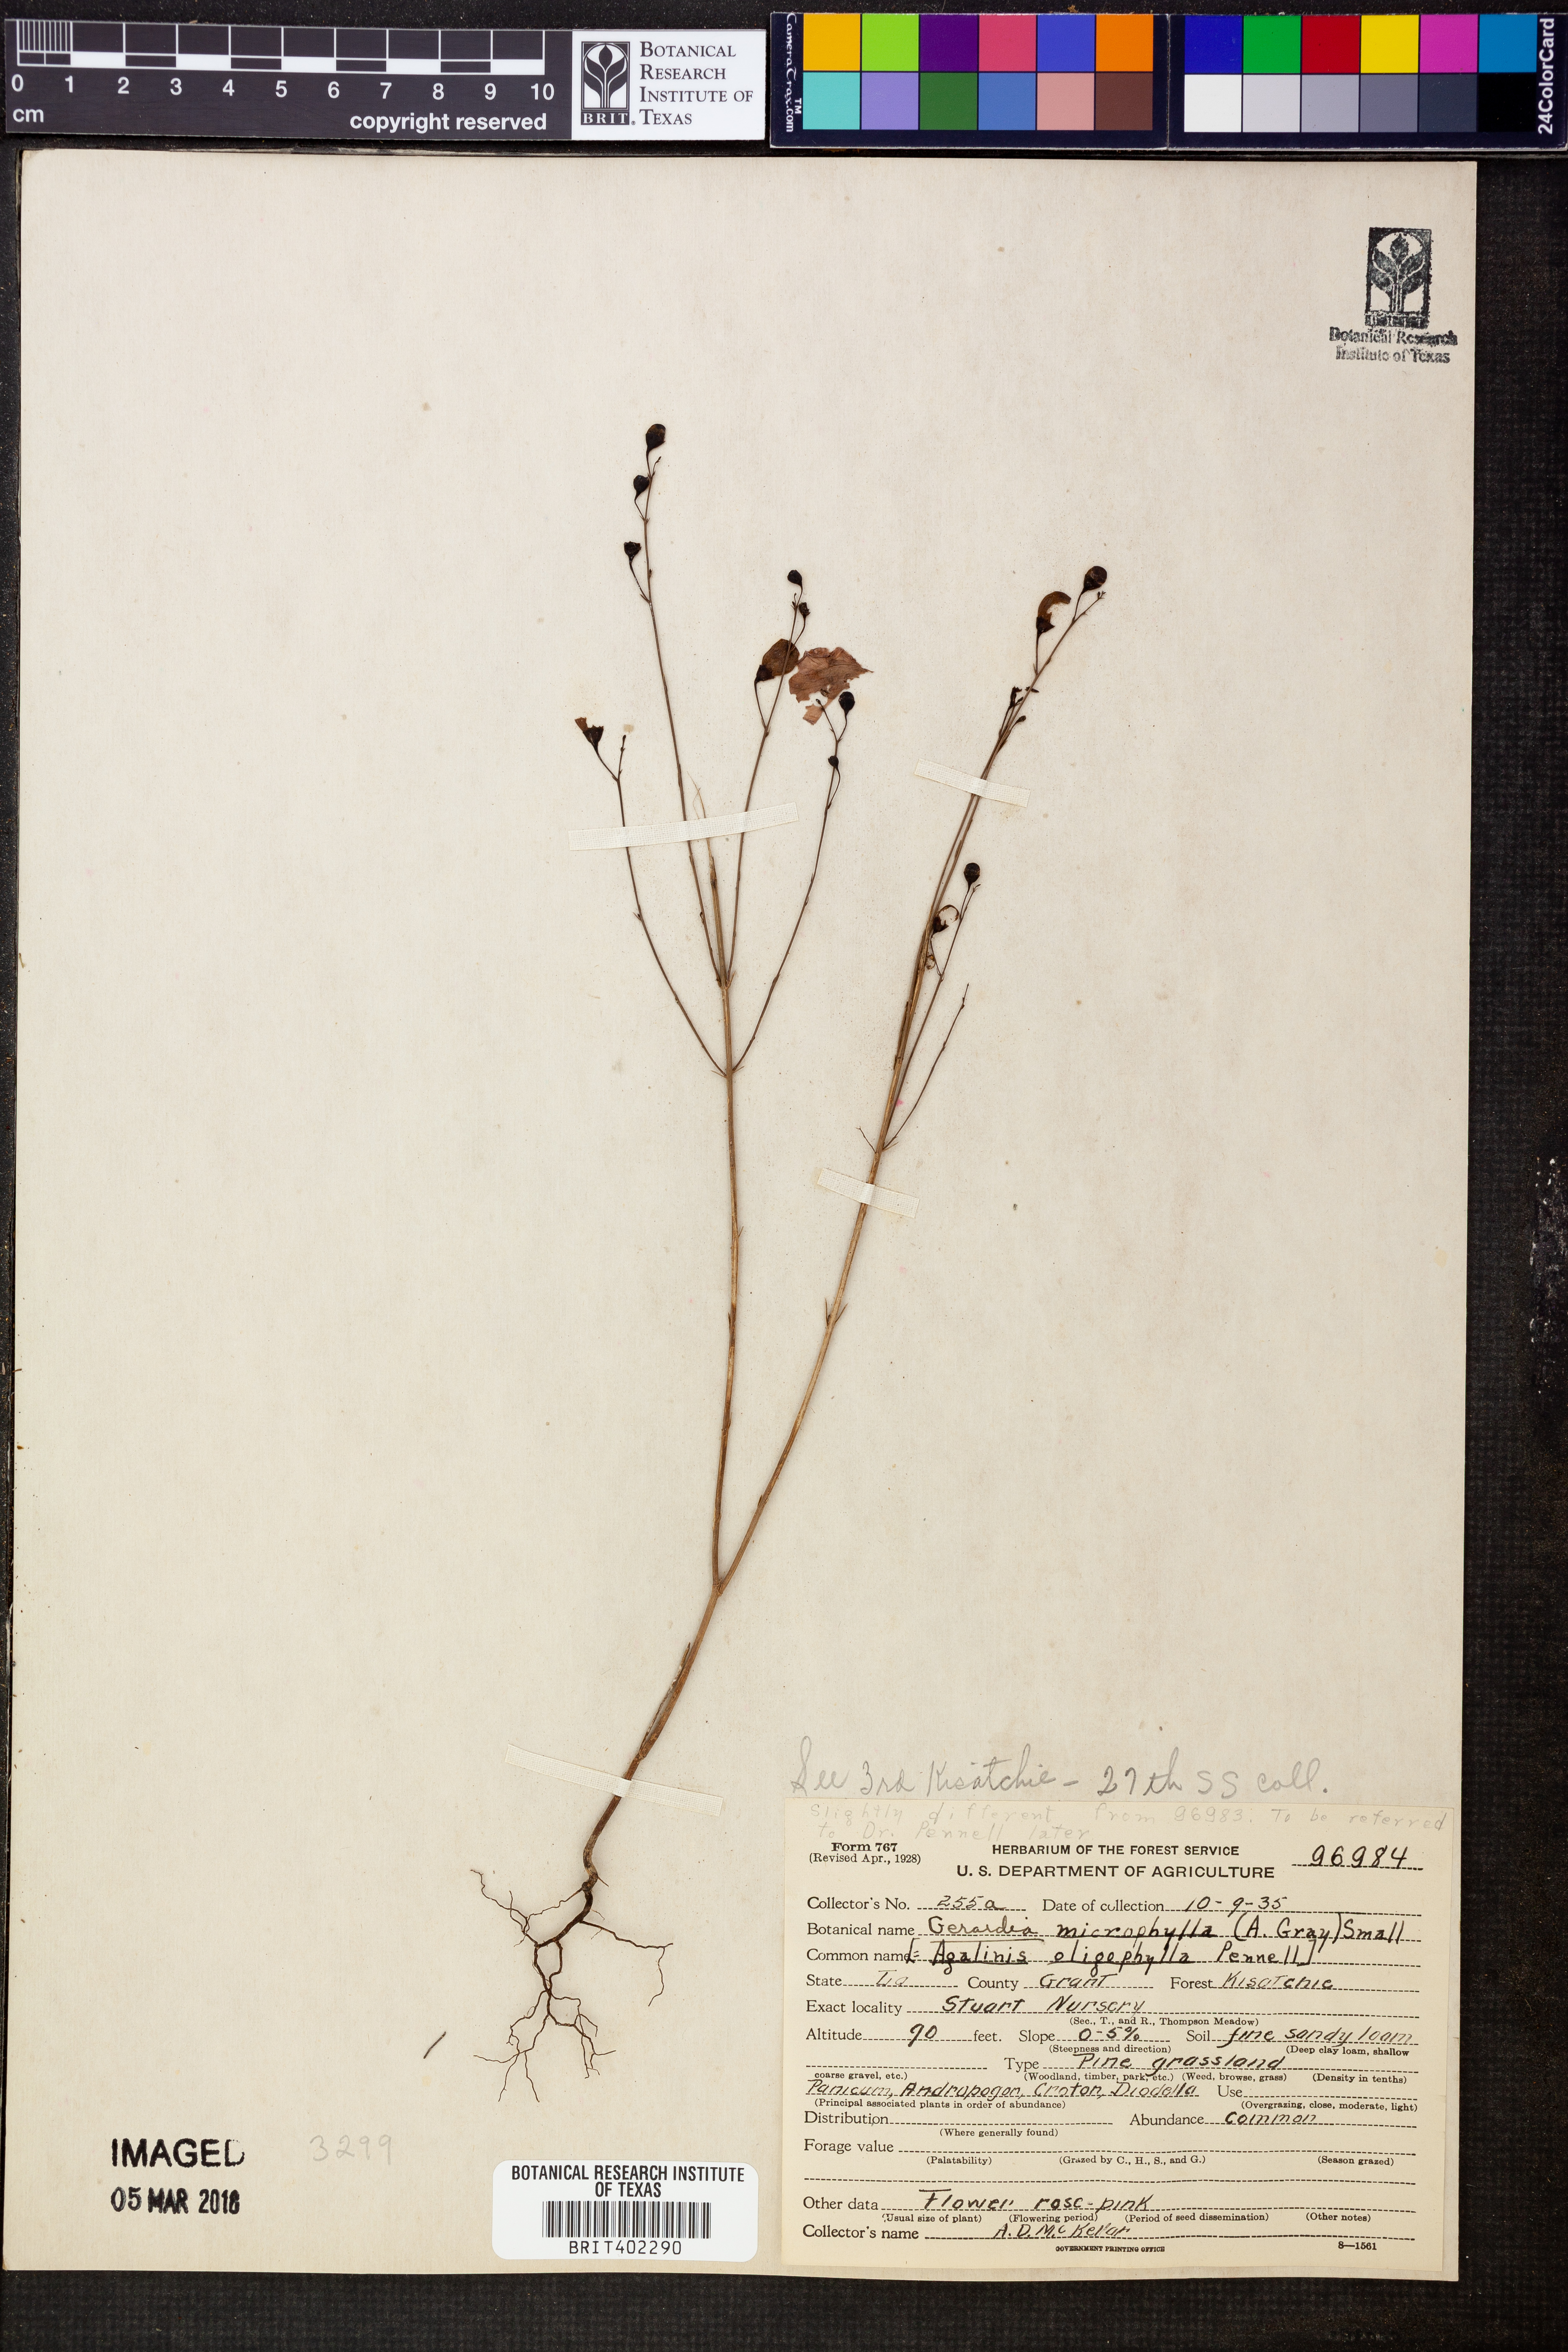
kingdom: Plantae
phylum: Tracheophyta
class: Magnoliopsida
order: Lamiales
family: Orobanchaceae
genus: Agalinis
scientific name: Agalinis oligophylla
